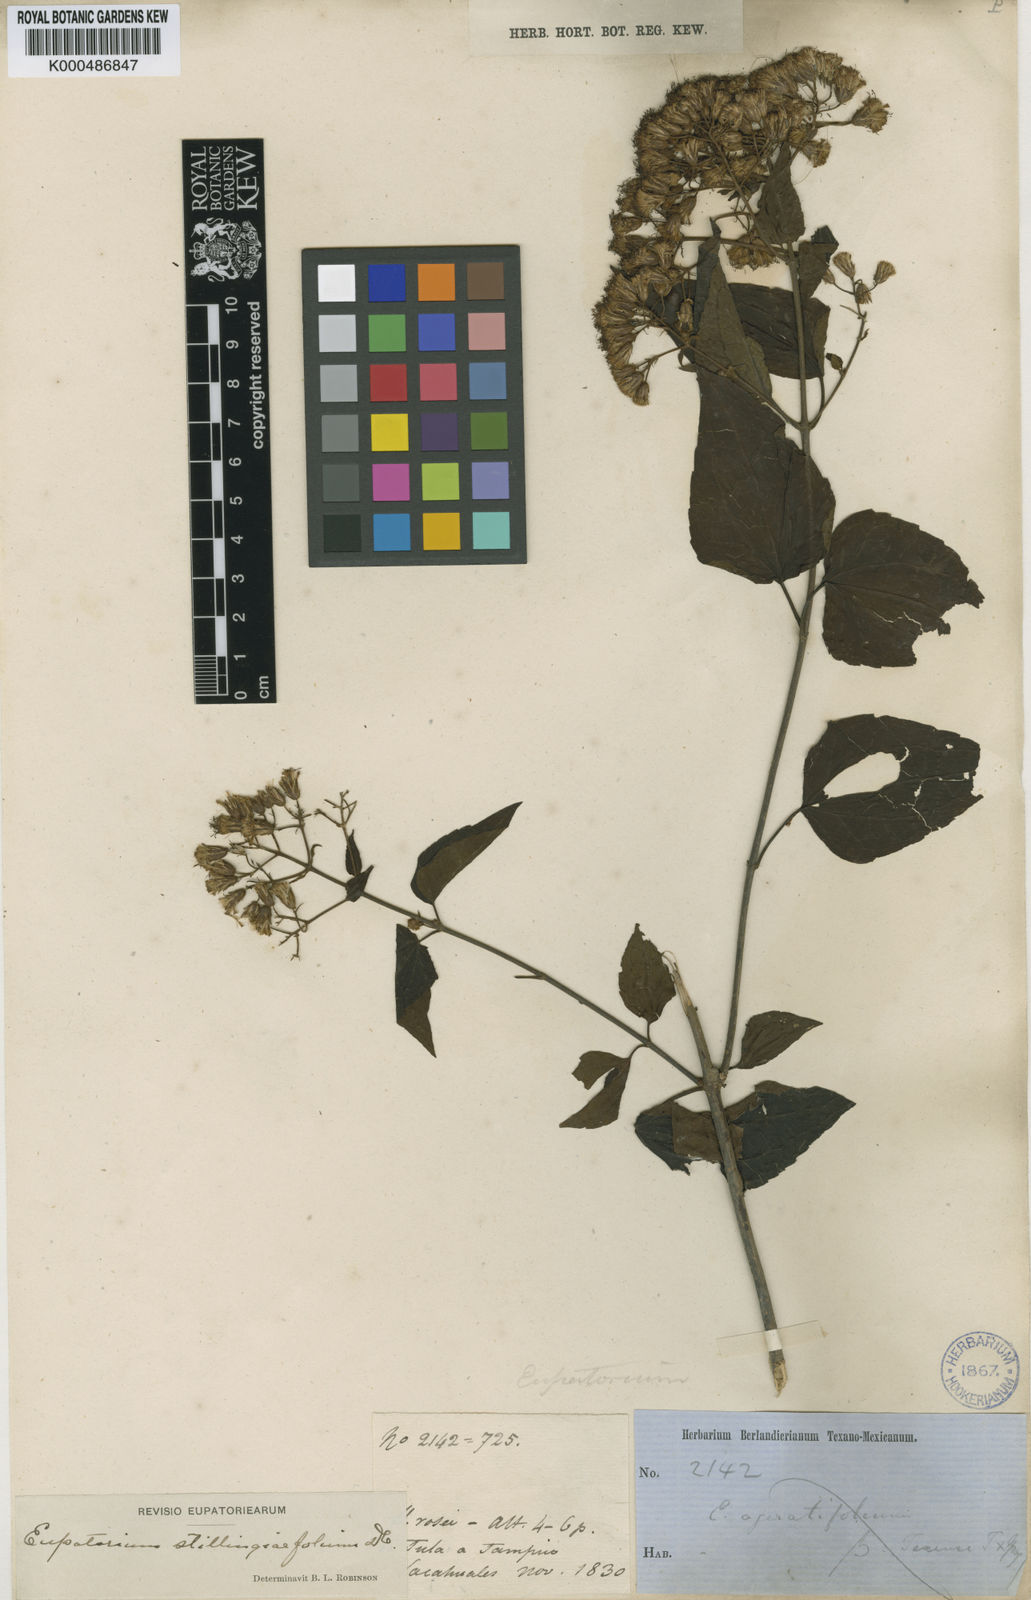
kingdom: Plantae
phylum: Tracheophyta
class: Magnoliopsida
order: Asterales
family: Asteraceae
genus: Chromolaena
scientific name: Chromolaena
